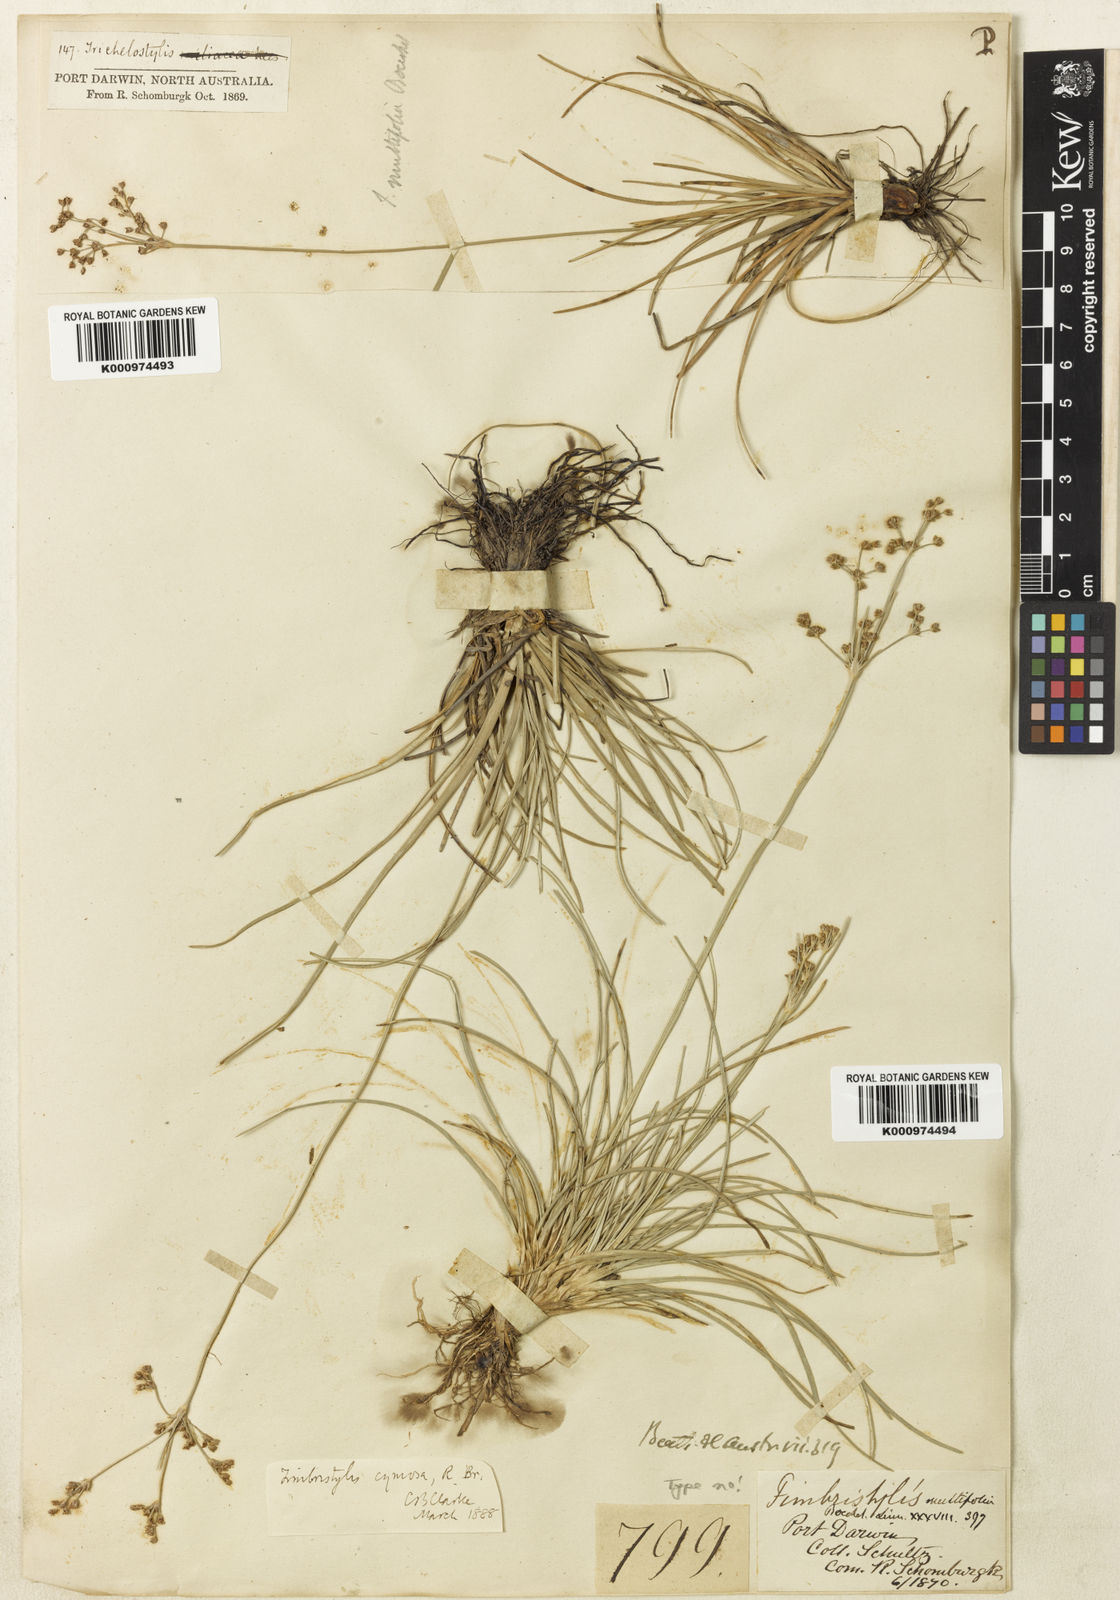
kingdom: Plantae
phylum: Tracheophyta
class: Liliopsida
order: Poales
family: Cyperaceae
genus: Fimbristylis
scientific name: Fimbristylis cymosa
